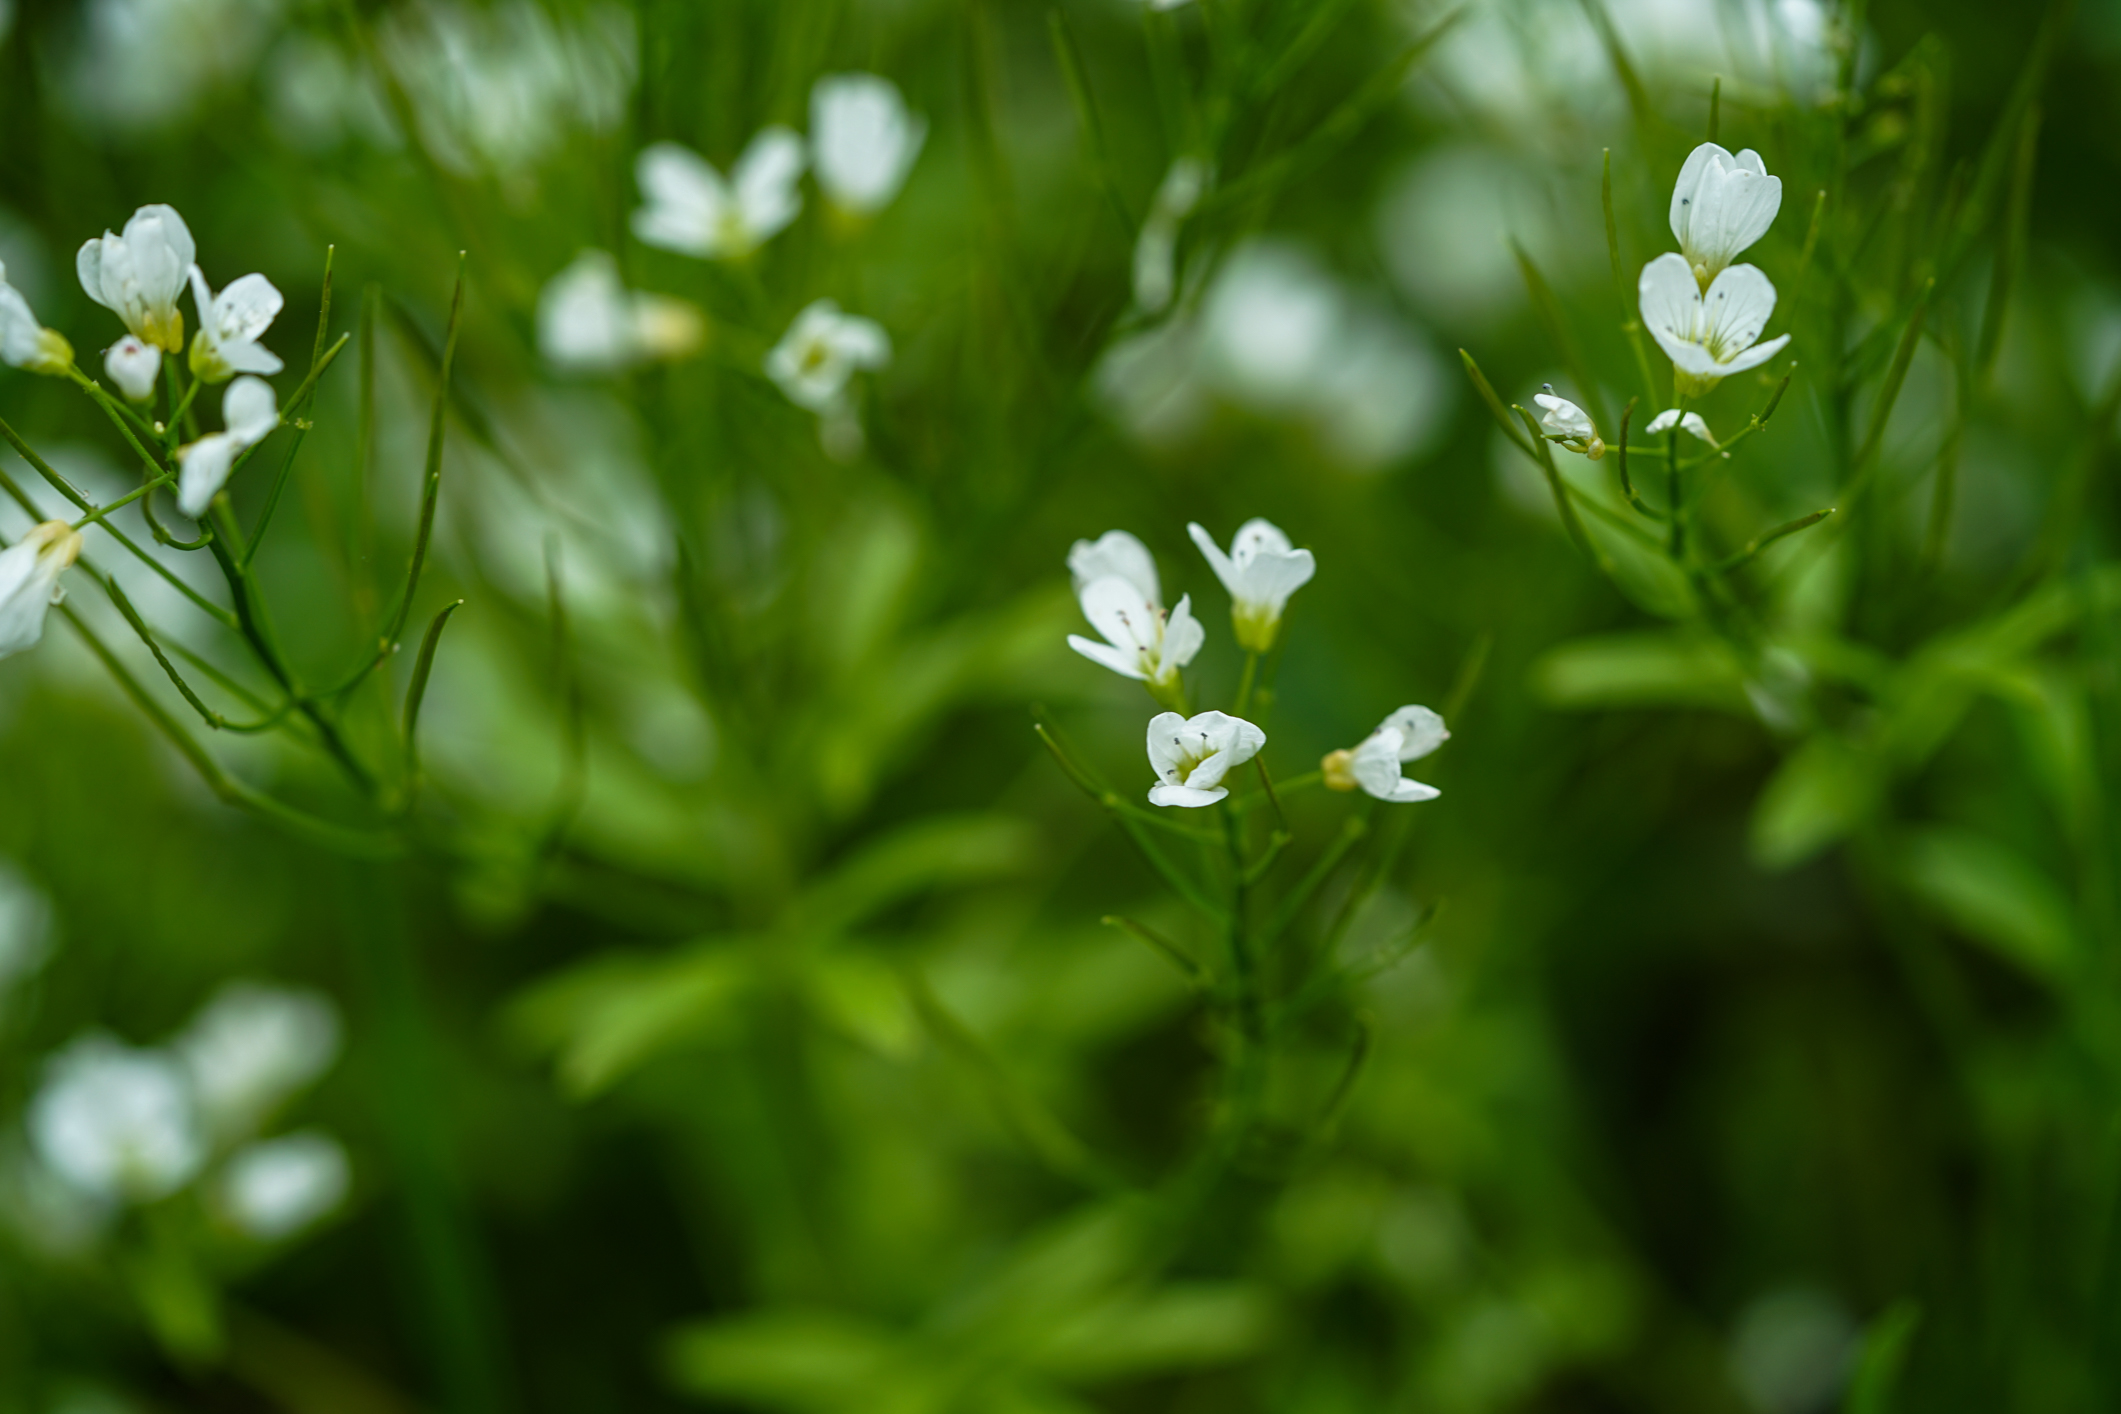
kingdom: Plantae
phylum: Tracheophyta
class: Magnoliopsida
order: Brassicales
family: Brassicaceae
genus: Cardamine
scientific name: Cardamine amara
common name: Large bitter-cress
